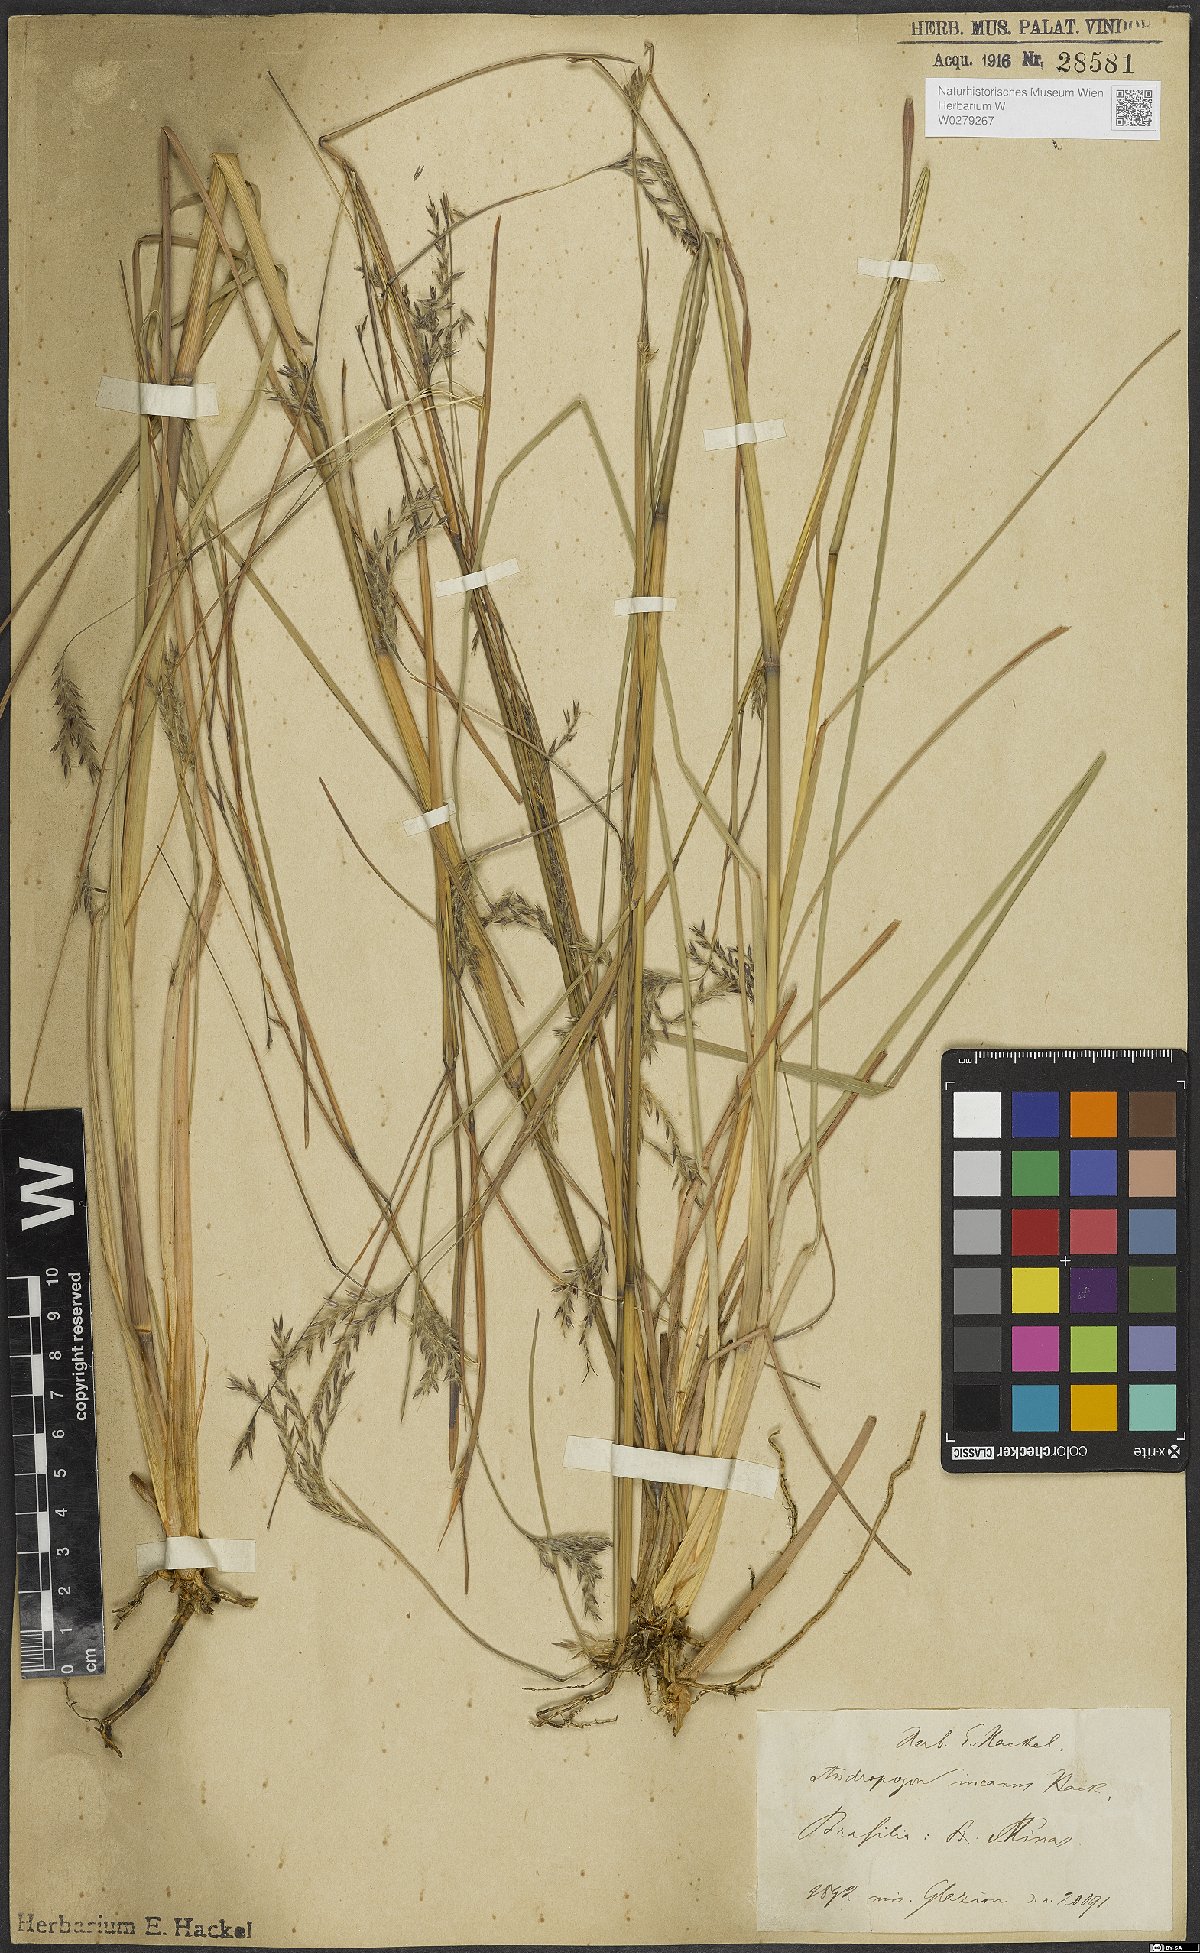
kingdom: Plantae
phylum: Tracheophyta
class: Liliopsida
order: Poales
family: Poaceae
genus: Andropogon
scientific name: Andropogon lateralis
